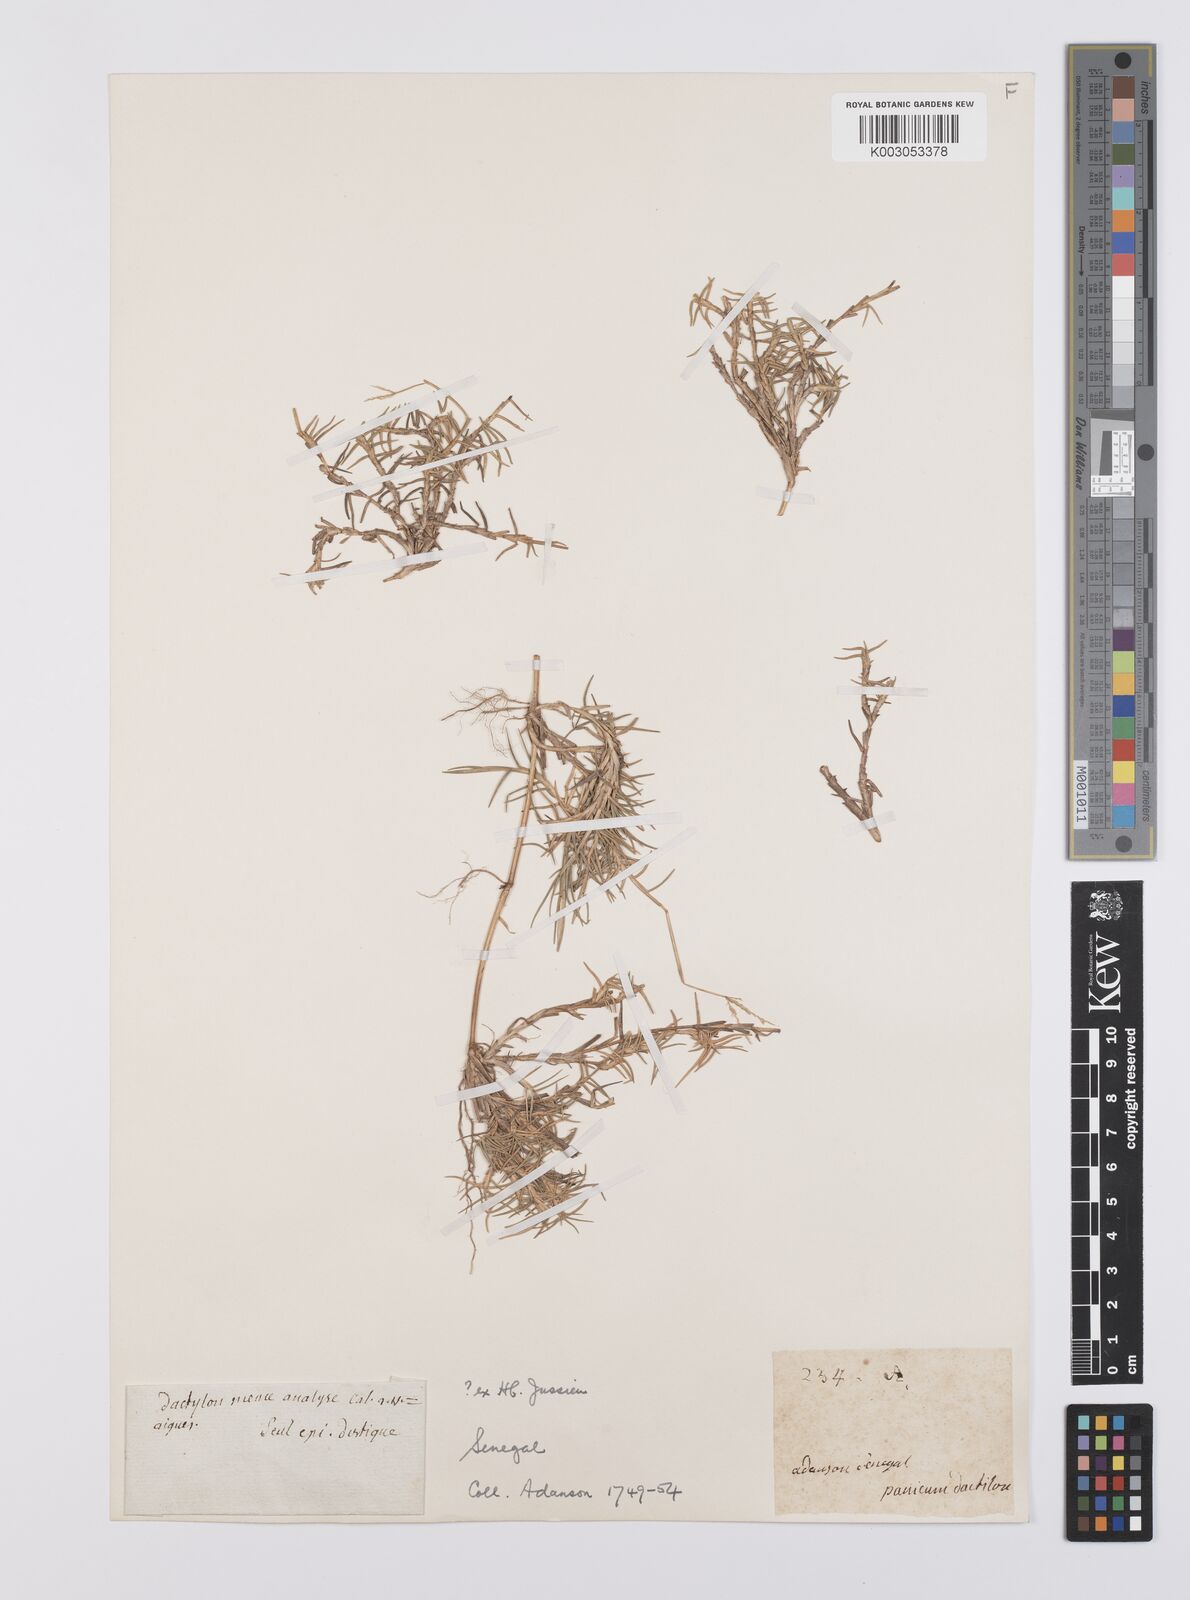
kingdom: Plantae
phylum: Tracheophyta
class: Liliopsida
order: Poales
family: Poaceae
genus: Cynodon
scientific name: Cynodon dactylon
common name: Bermuda grass
